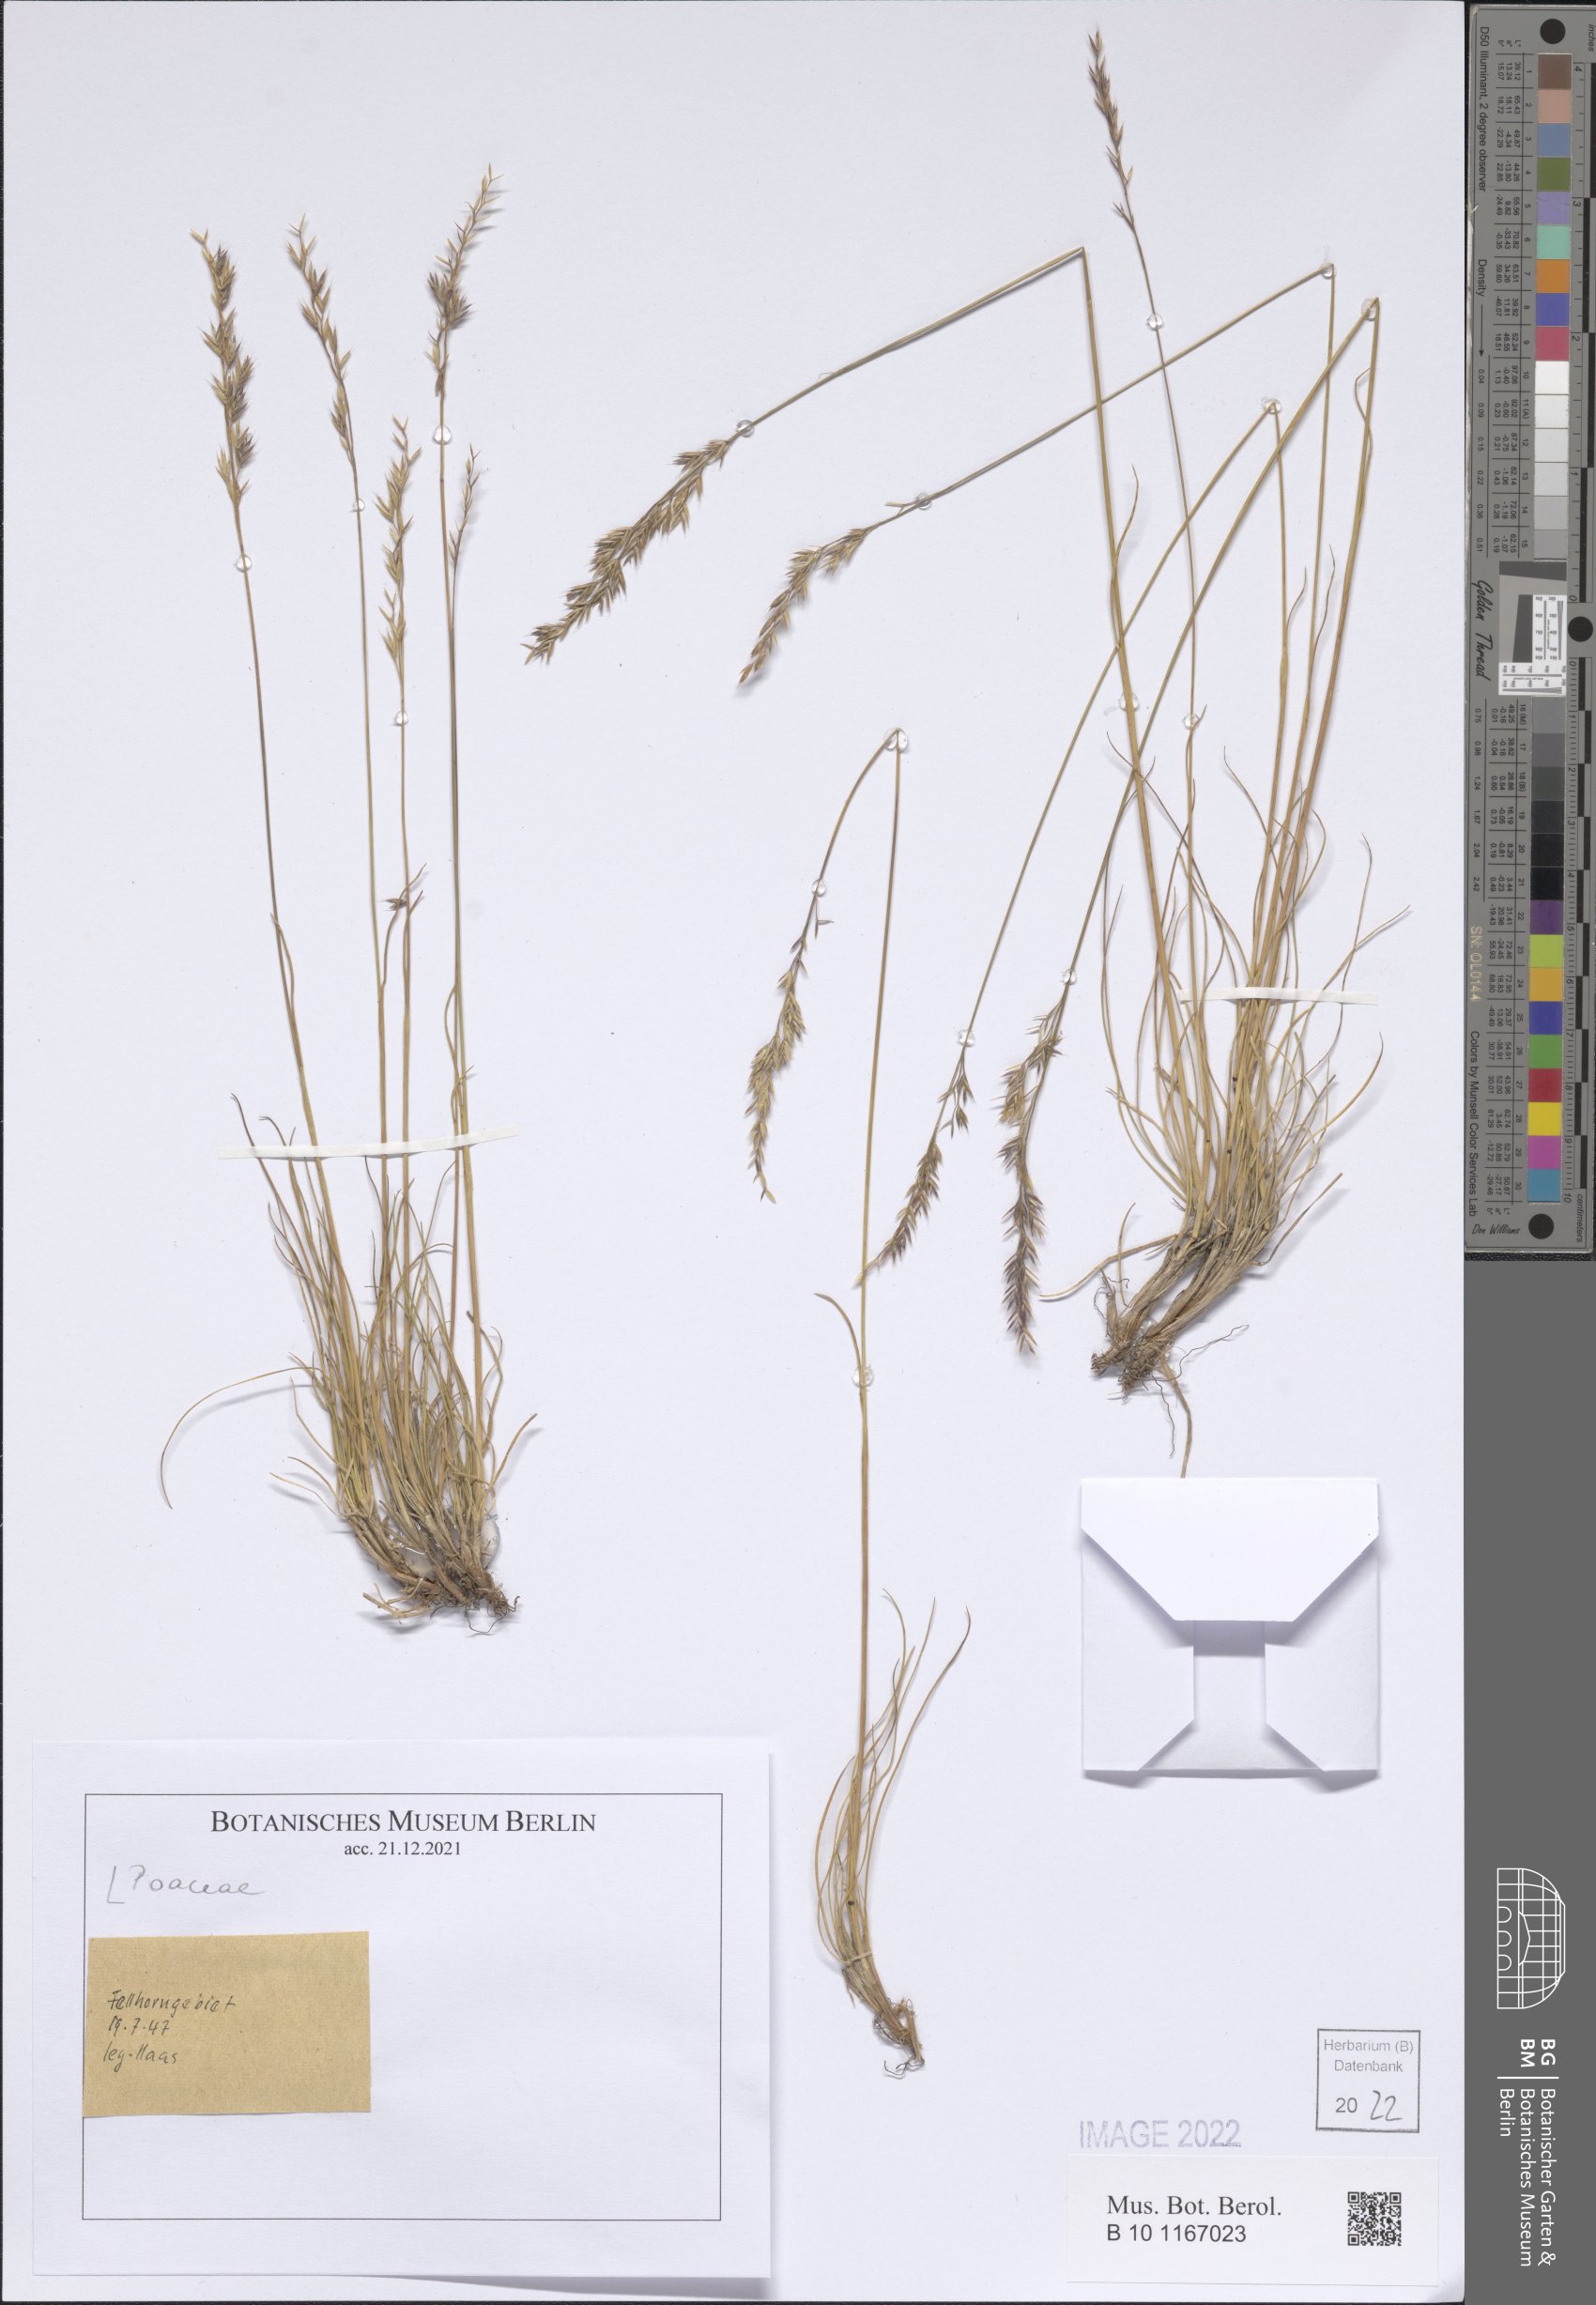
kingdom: Plantae
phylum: Tracheophyta
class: Liliopsida
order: Poales
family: Poaceae
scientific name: Poaceae
